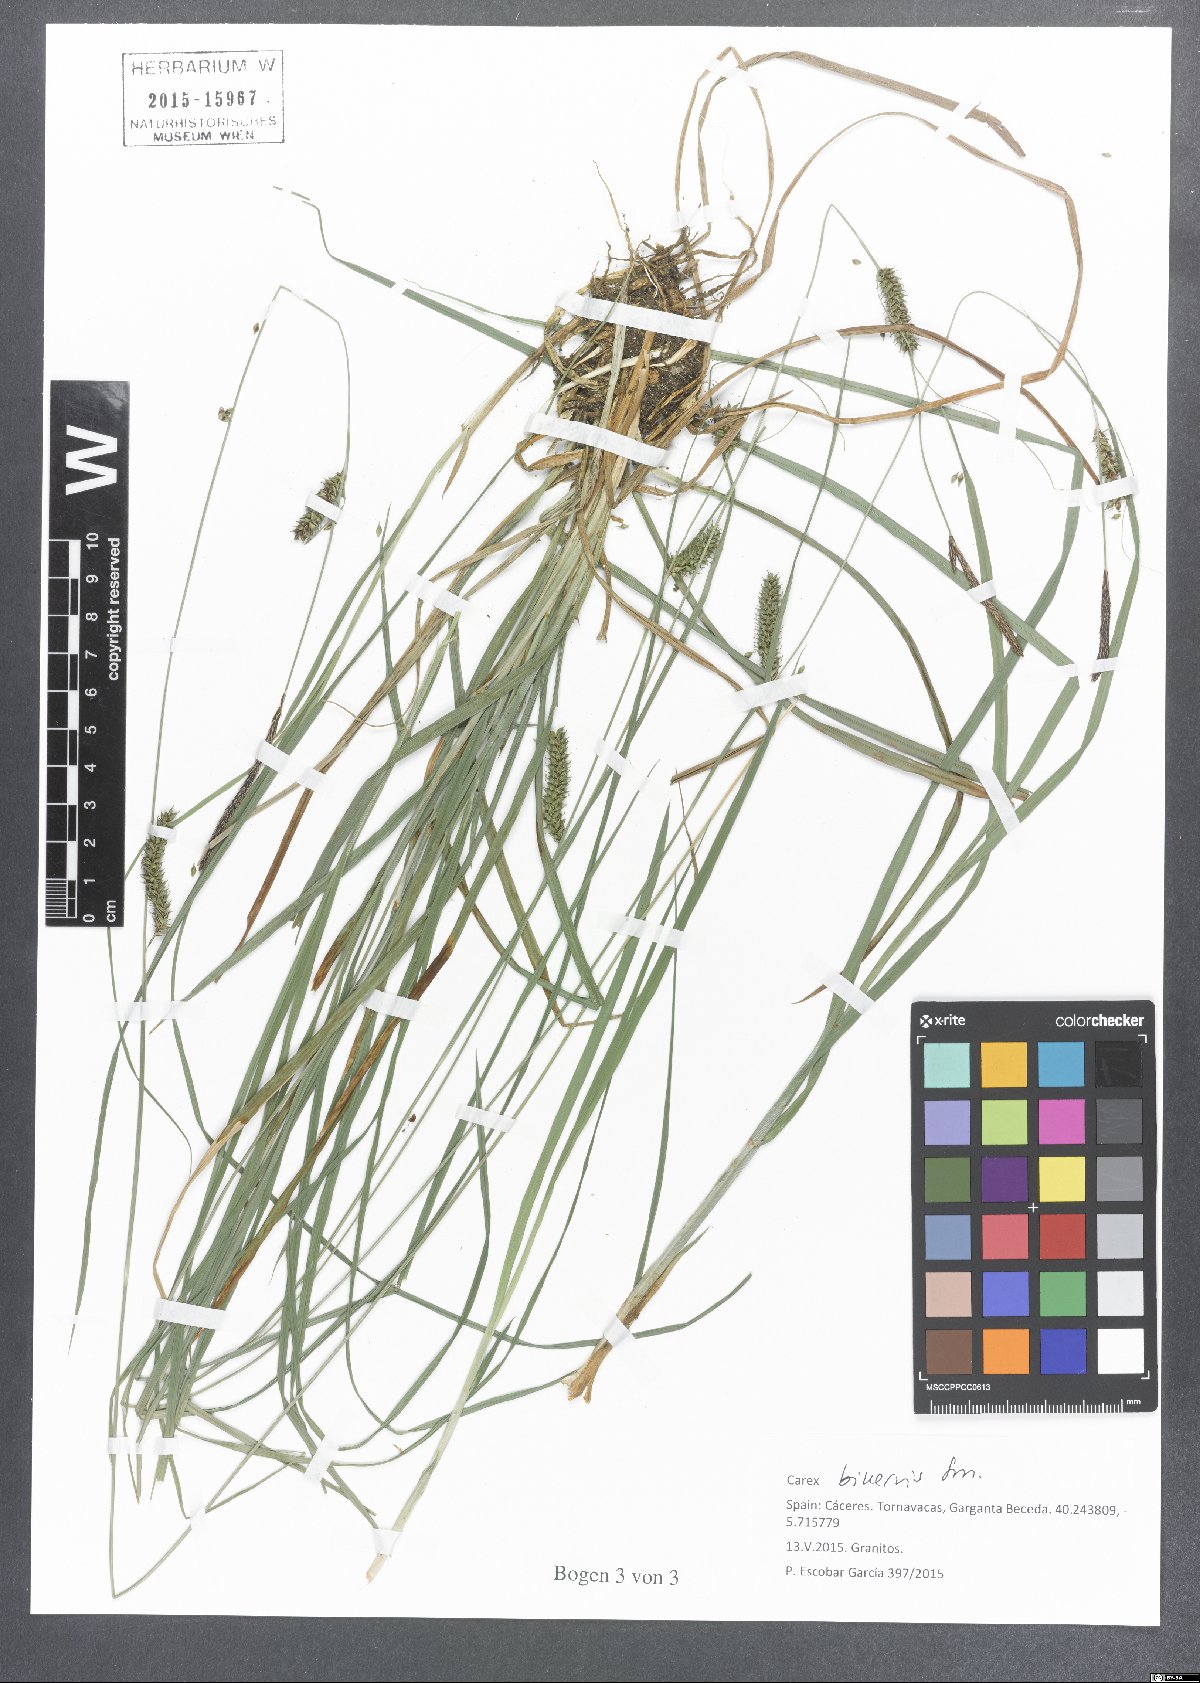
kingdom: Plantae
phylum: Tracheophyta
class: Liliopsida
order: Poales
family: Cyperaceae
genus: Carex
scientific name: Carex binervis
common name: Green-ribbed sedge
